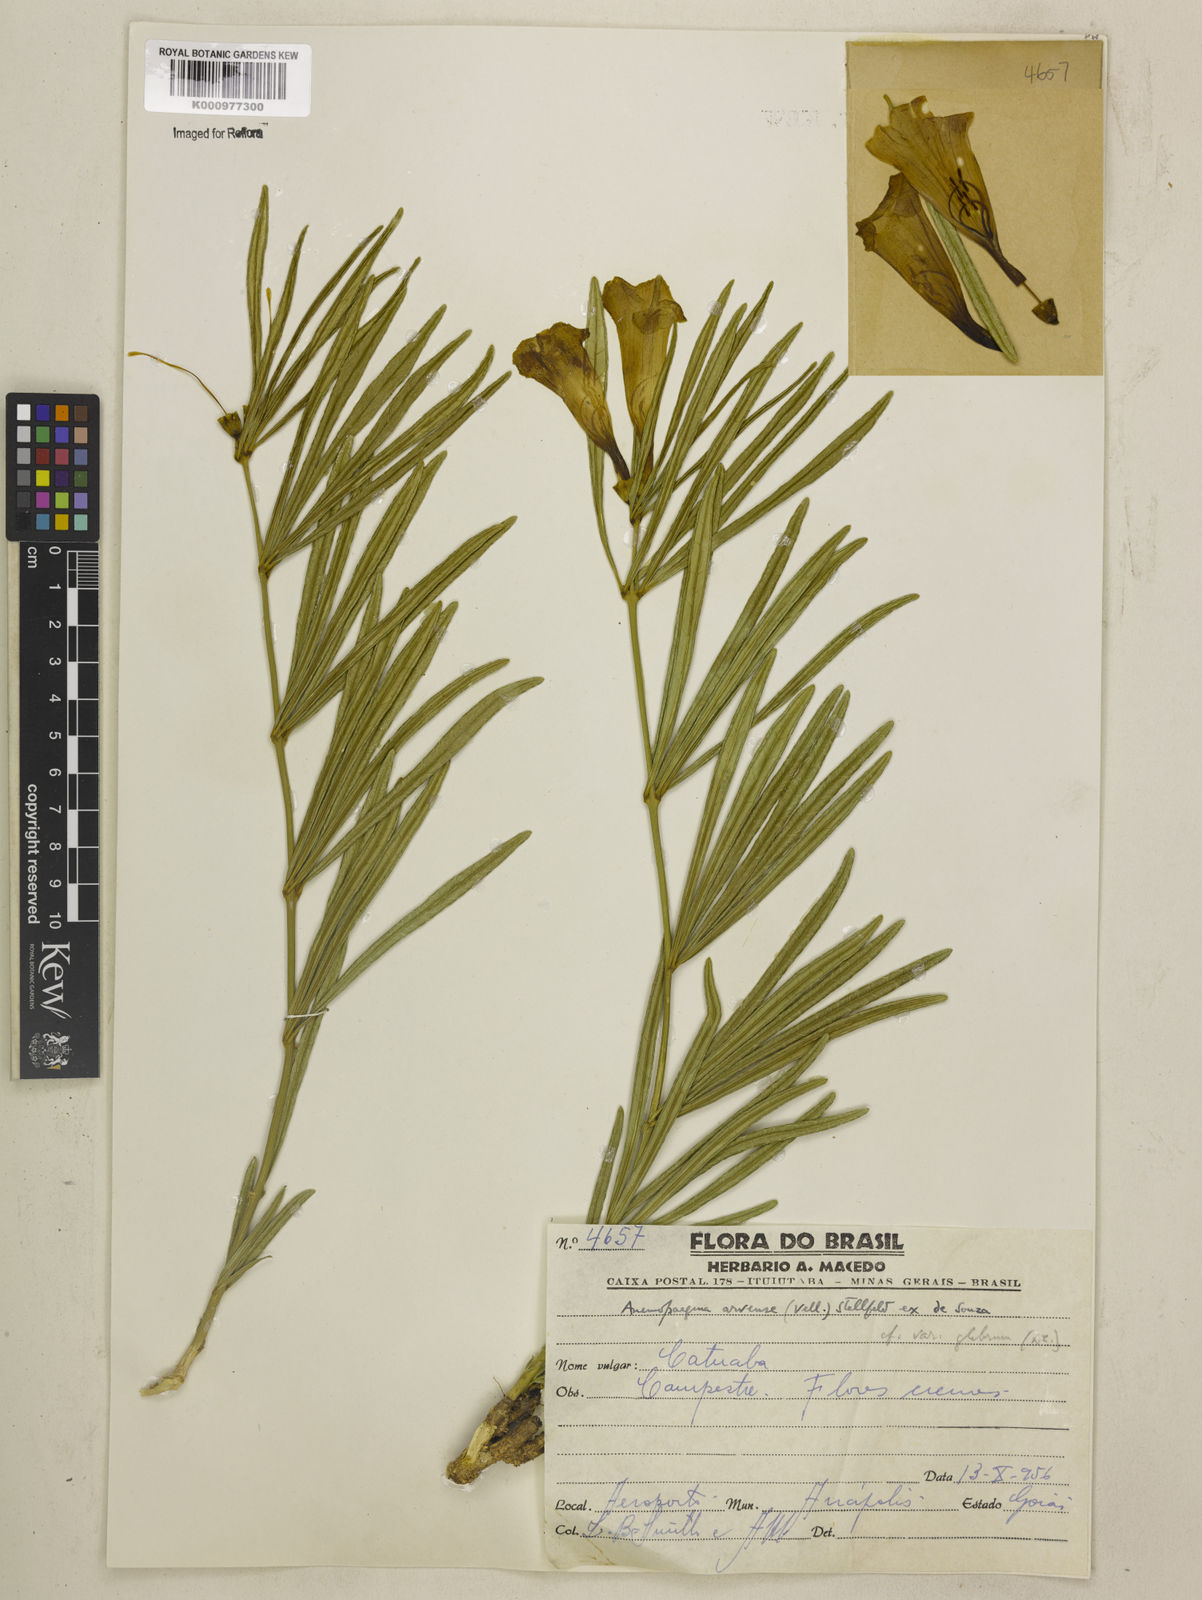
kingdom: Plantae
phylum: Tracheophyta
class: Magnoliopsida
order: Lamiales
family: Bignoniaceae
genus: Anemopaegma
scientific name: Anemopaegma arvense
